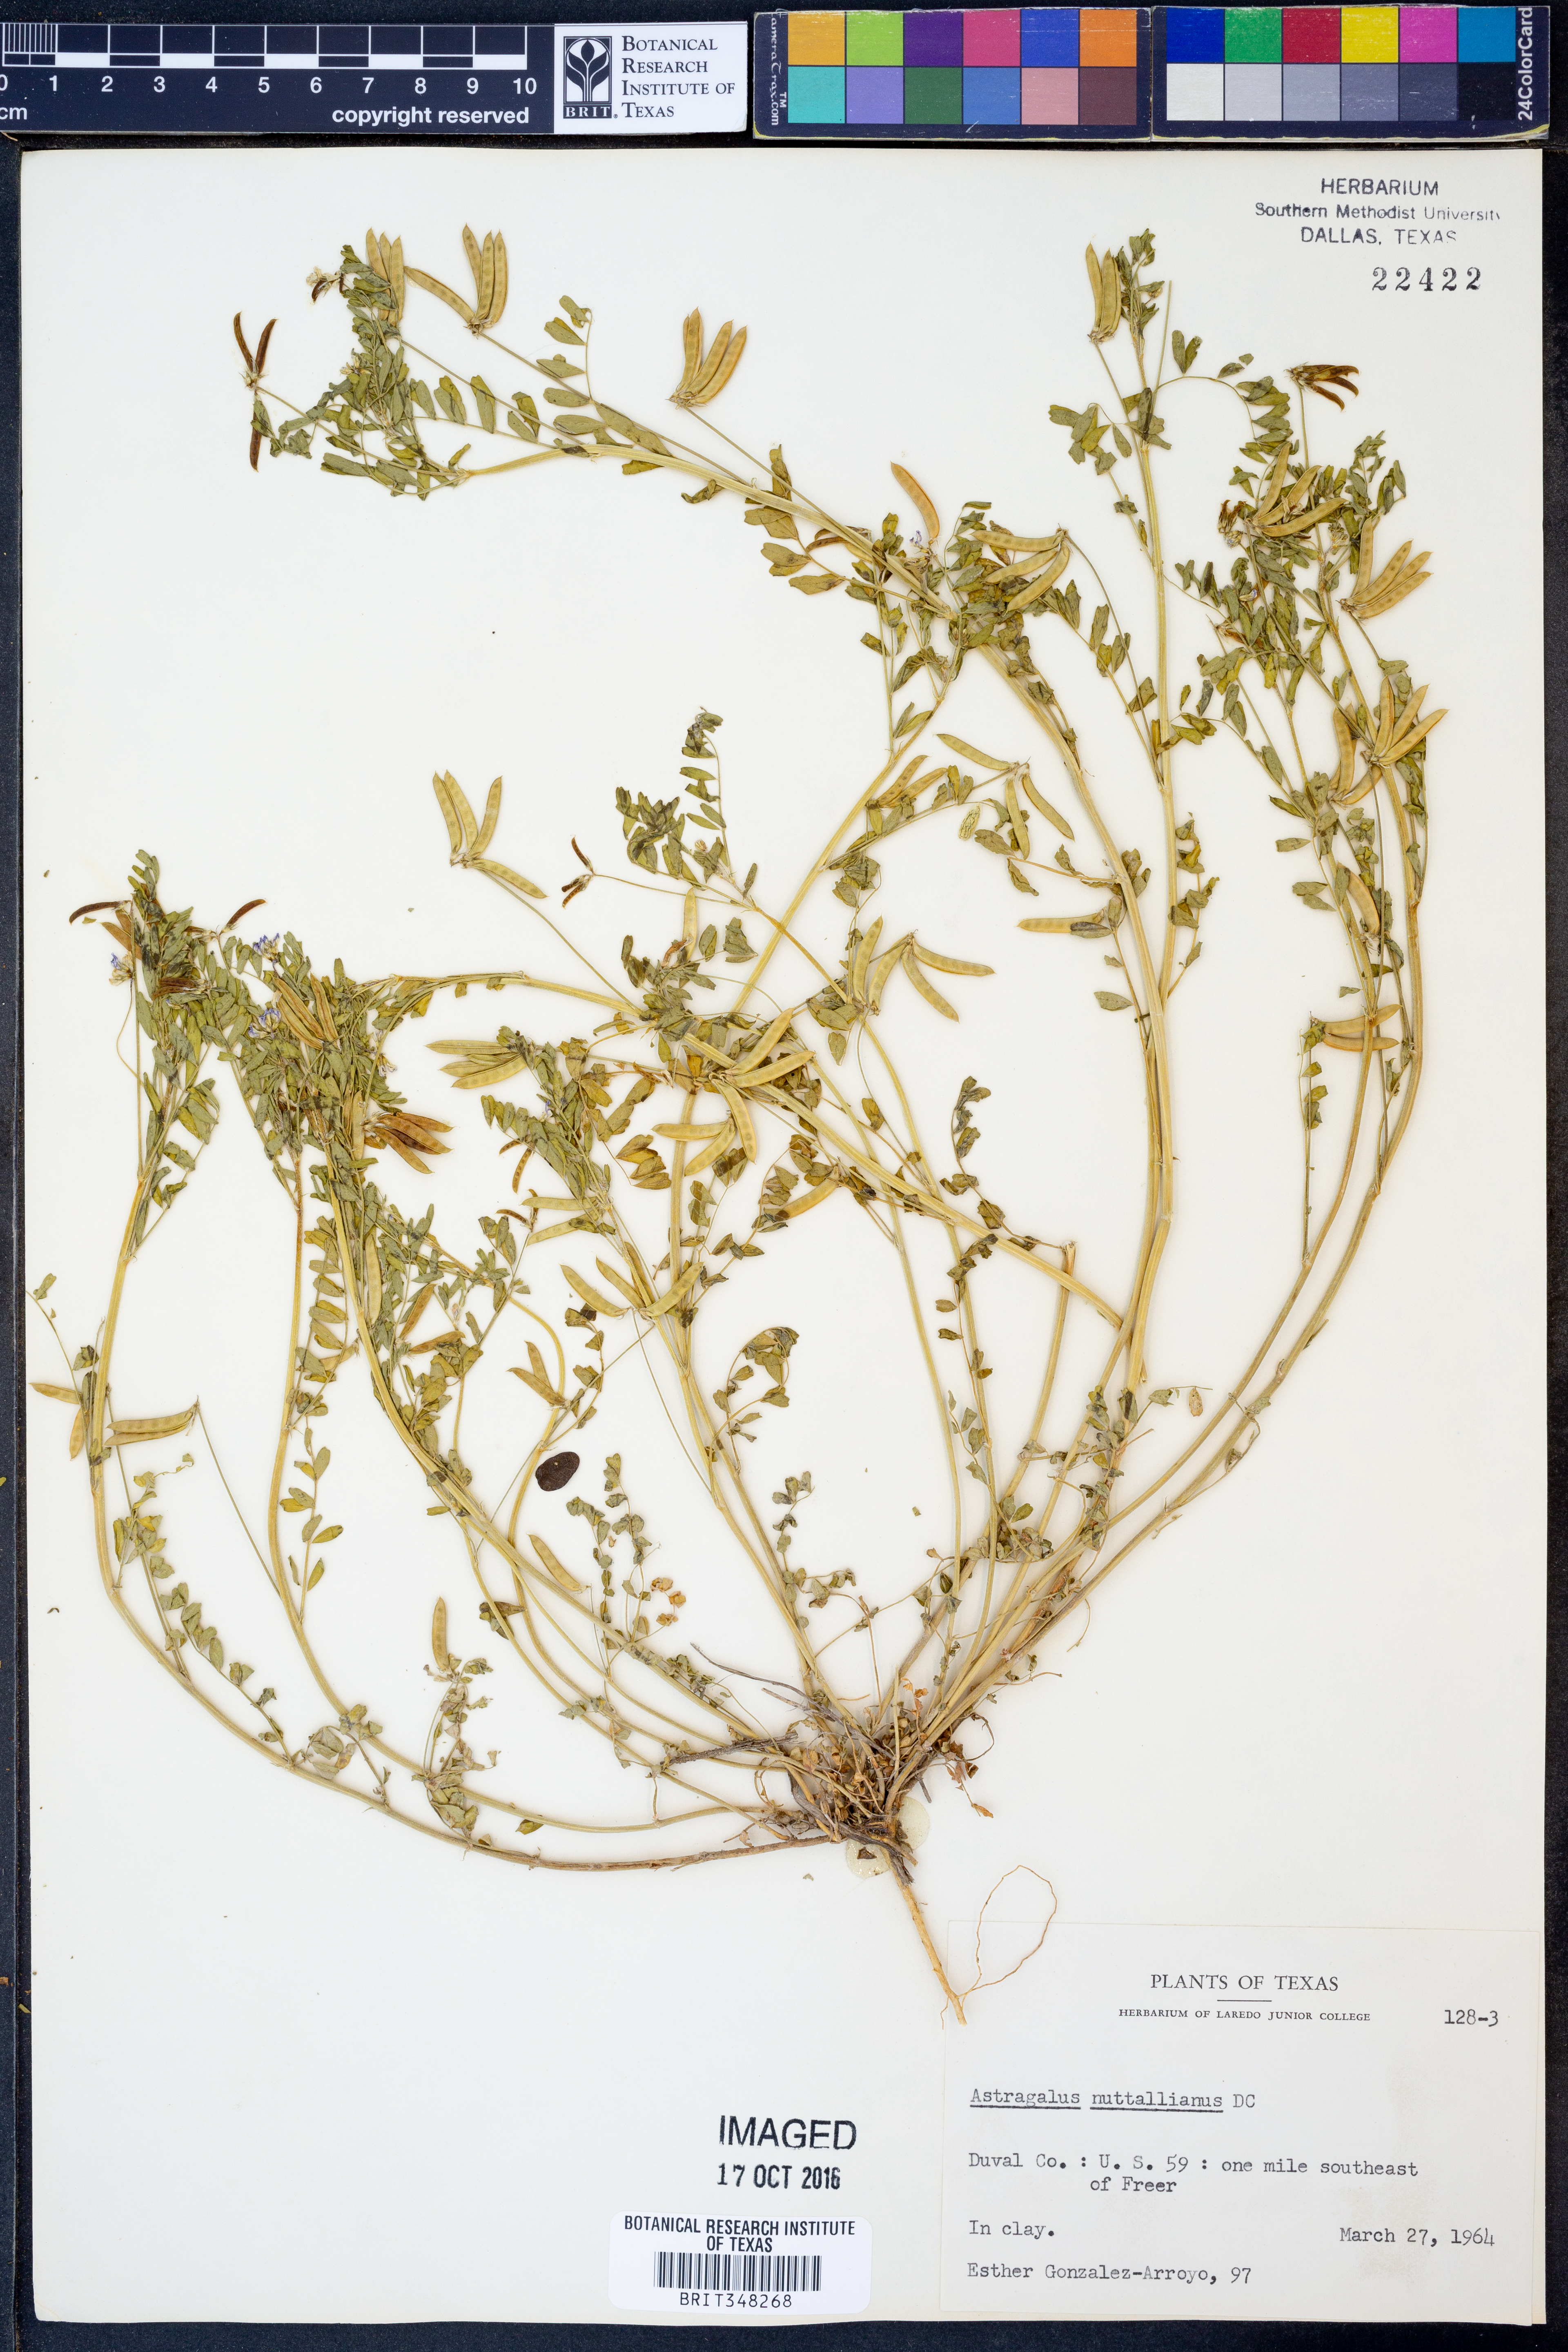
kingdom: Plantae
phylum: Tracheophyta
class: Magnoliopsida
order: Fabales
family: Fabaceae
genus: Astragalus
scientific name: Astragalus nuttallianus
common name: Smallflowered milkvetch
